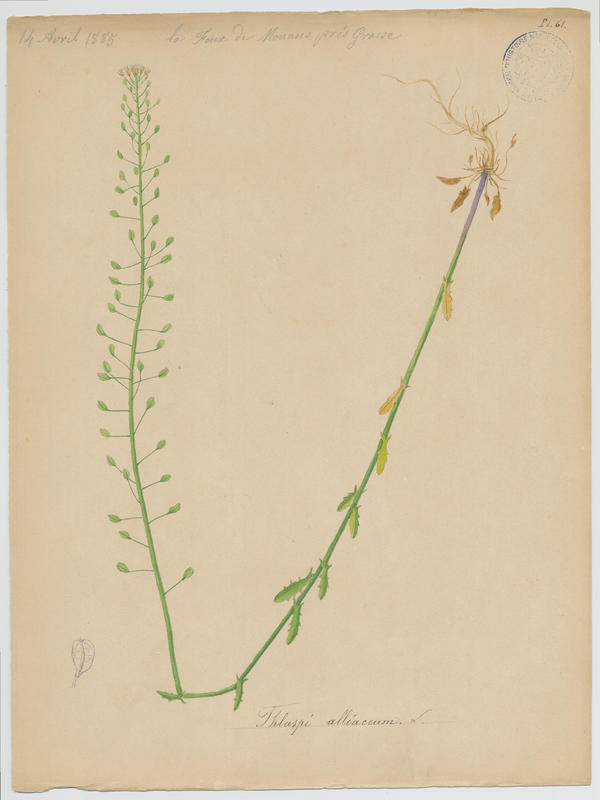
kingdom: Plantae
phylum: Tracheophyta
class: Magnoliopsida
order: Brassicales
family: Brassicaceae
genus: Mummenhoffia
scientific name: Mummenhoffia alliacea
